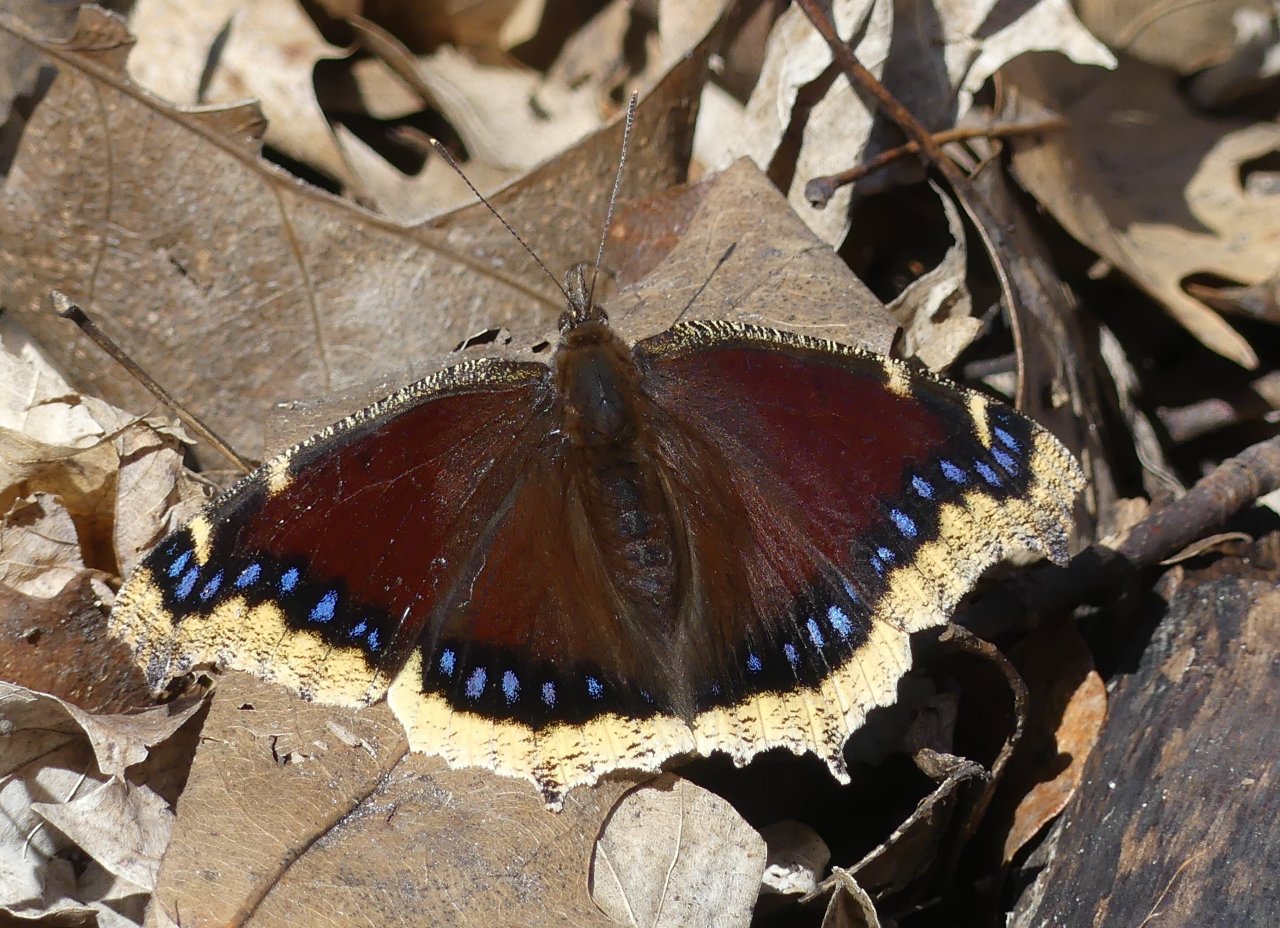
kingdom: Animalia
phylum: Arthropoda
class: Insecta
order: Lepidoptera
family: Nymphalidae
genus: Nymphalis
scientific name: Nymphalis antiopa
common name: Mourning Cloak
